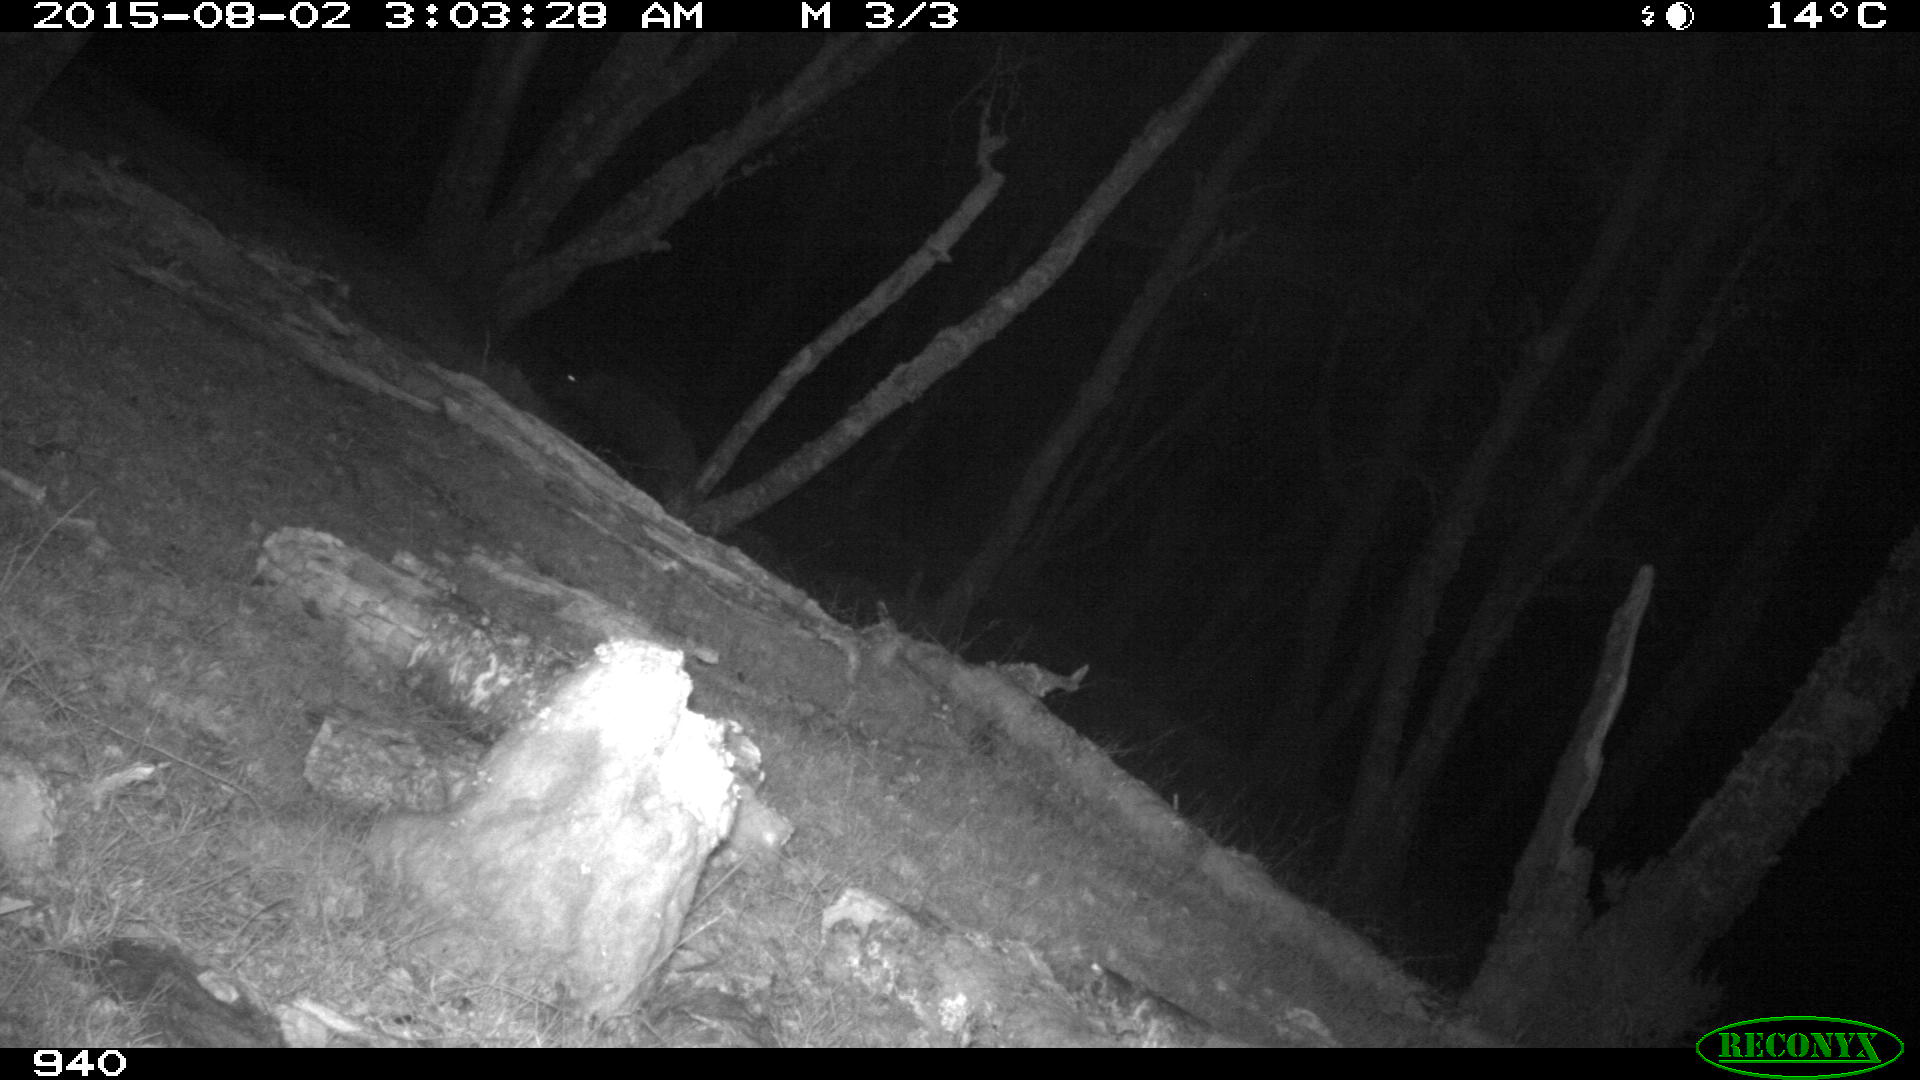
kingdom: Animalia
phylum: Chordata
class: Mammalia
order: Artiodactyla
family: Suidae
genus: Sus
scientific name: Sus scrofa
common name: Wild boar
